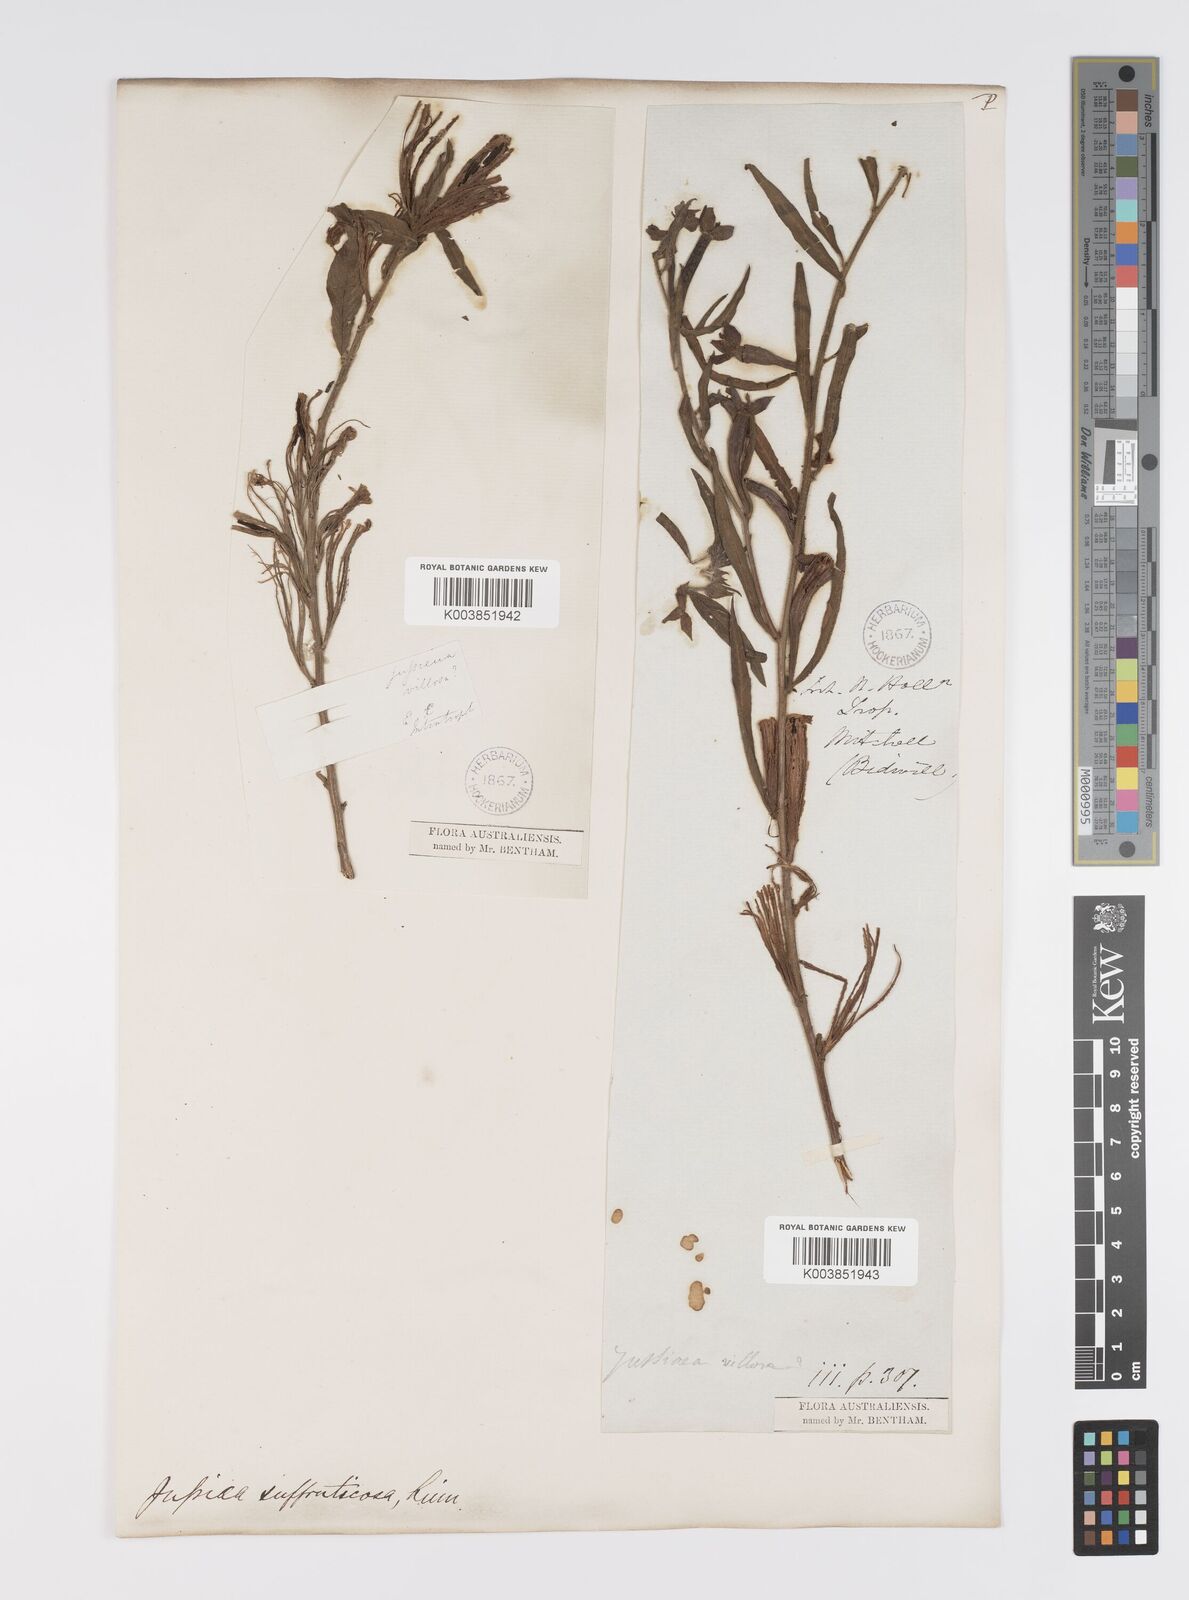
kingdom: Plantae
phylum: Tracheophyta
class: Magnoliopsida
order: Myrtales
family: Onagraceae
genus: Ludwigia
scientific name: Ludwigia octovalvis
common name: Water-primrose
